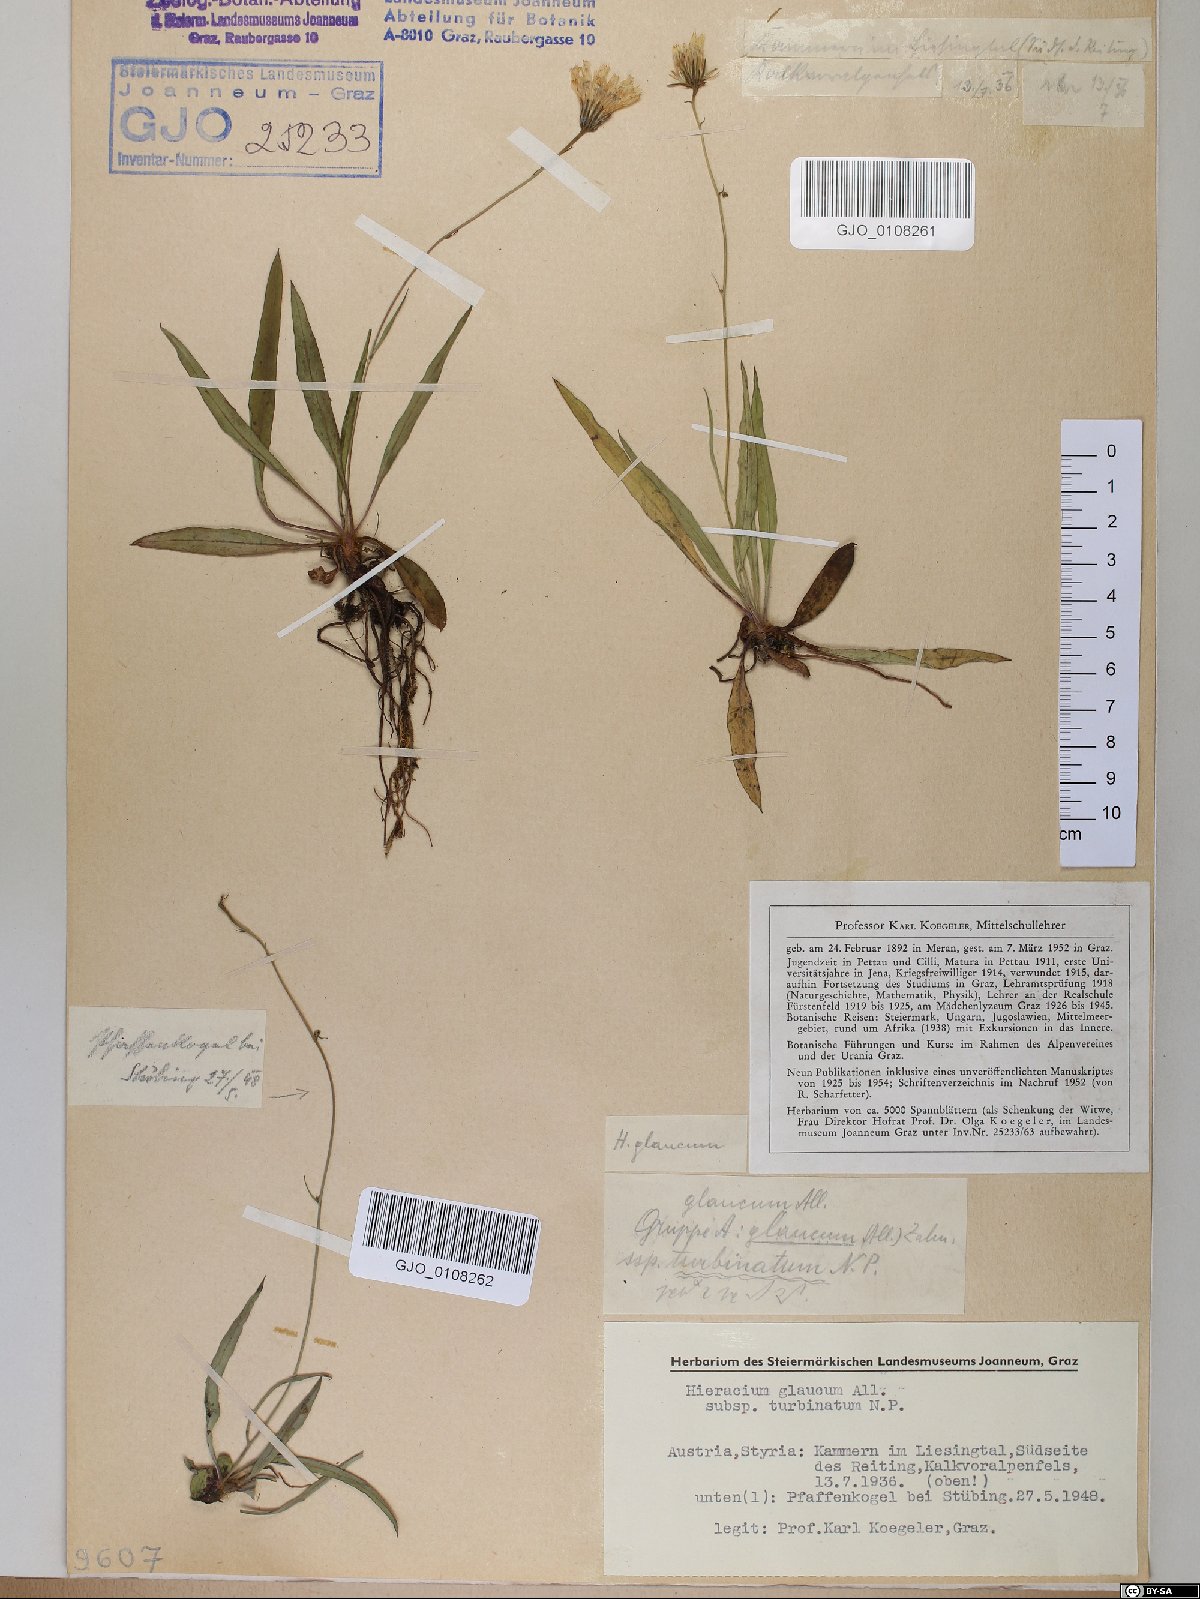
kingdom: Plantae
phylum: Tracheophyta
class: Magnoliopsida
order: Asterales
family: Asteraceae
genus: Hieracium
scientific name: Hieracium glaucum
